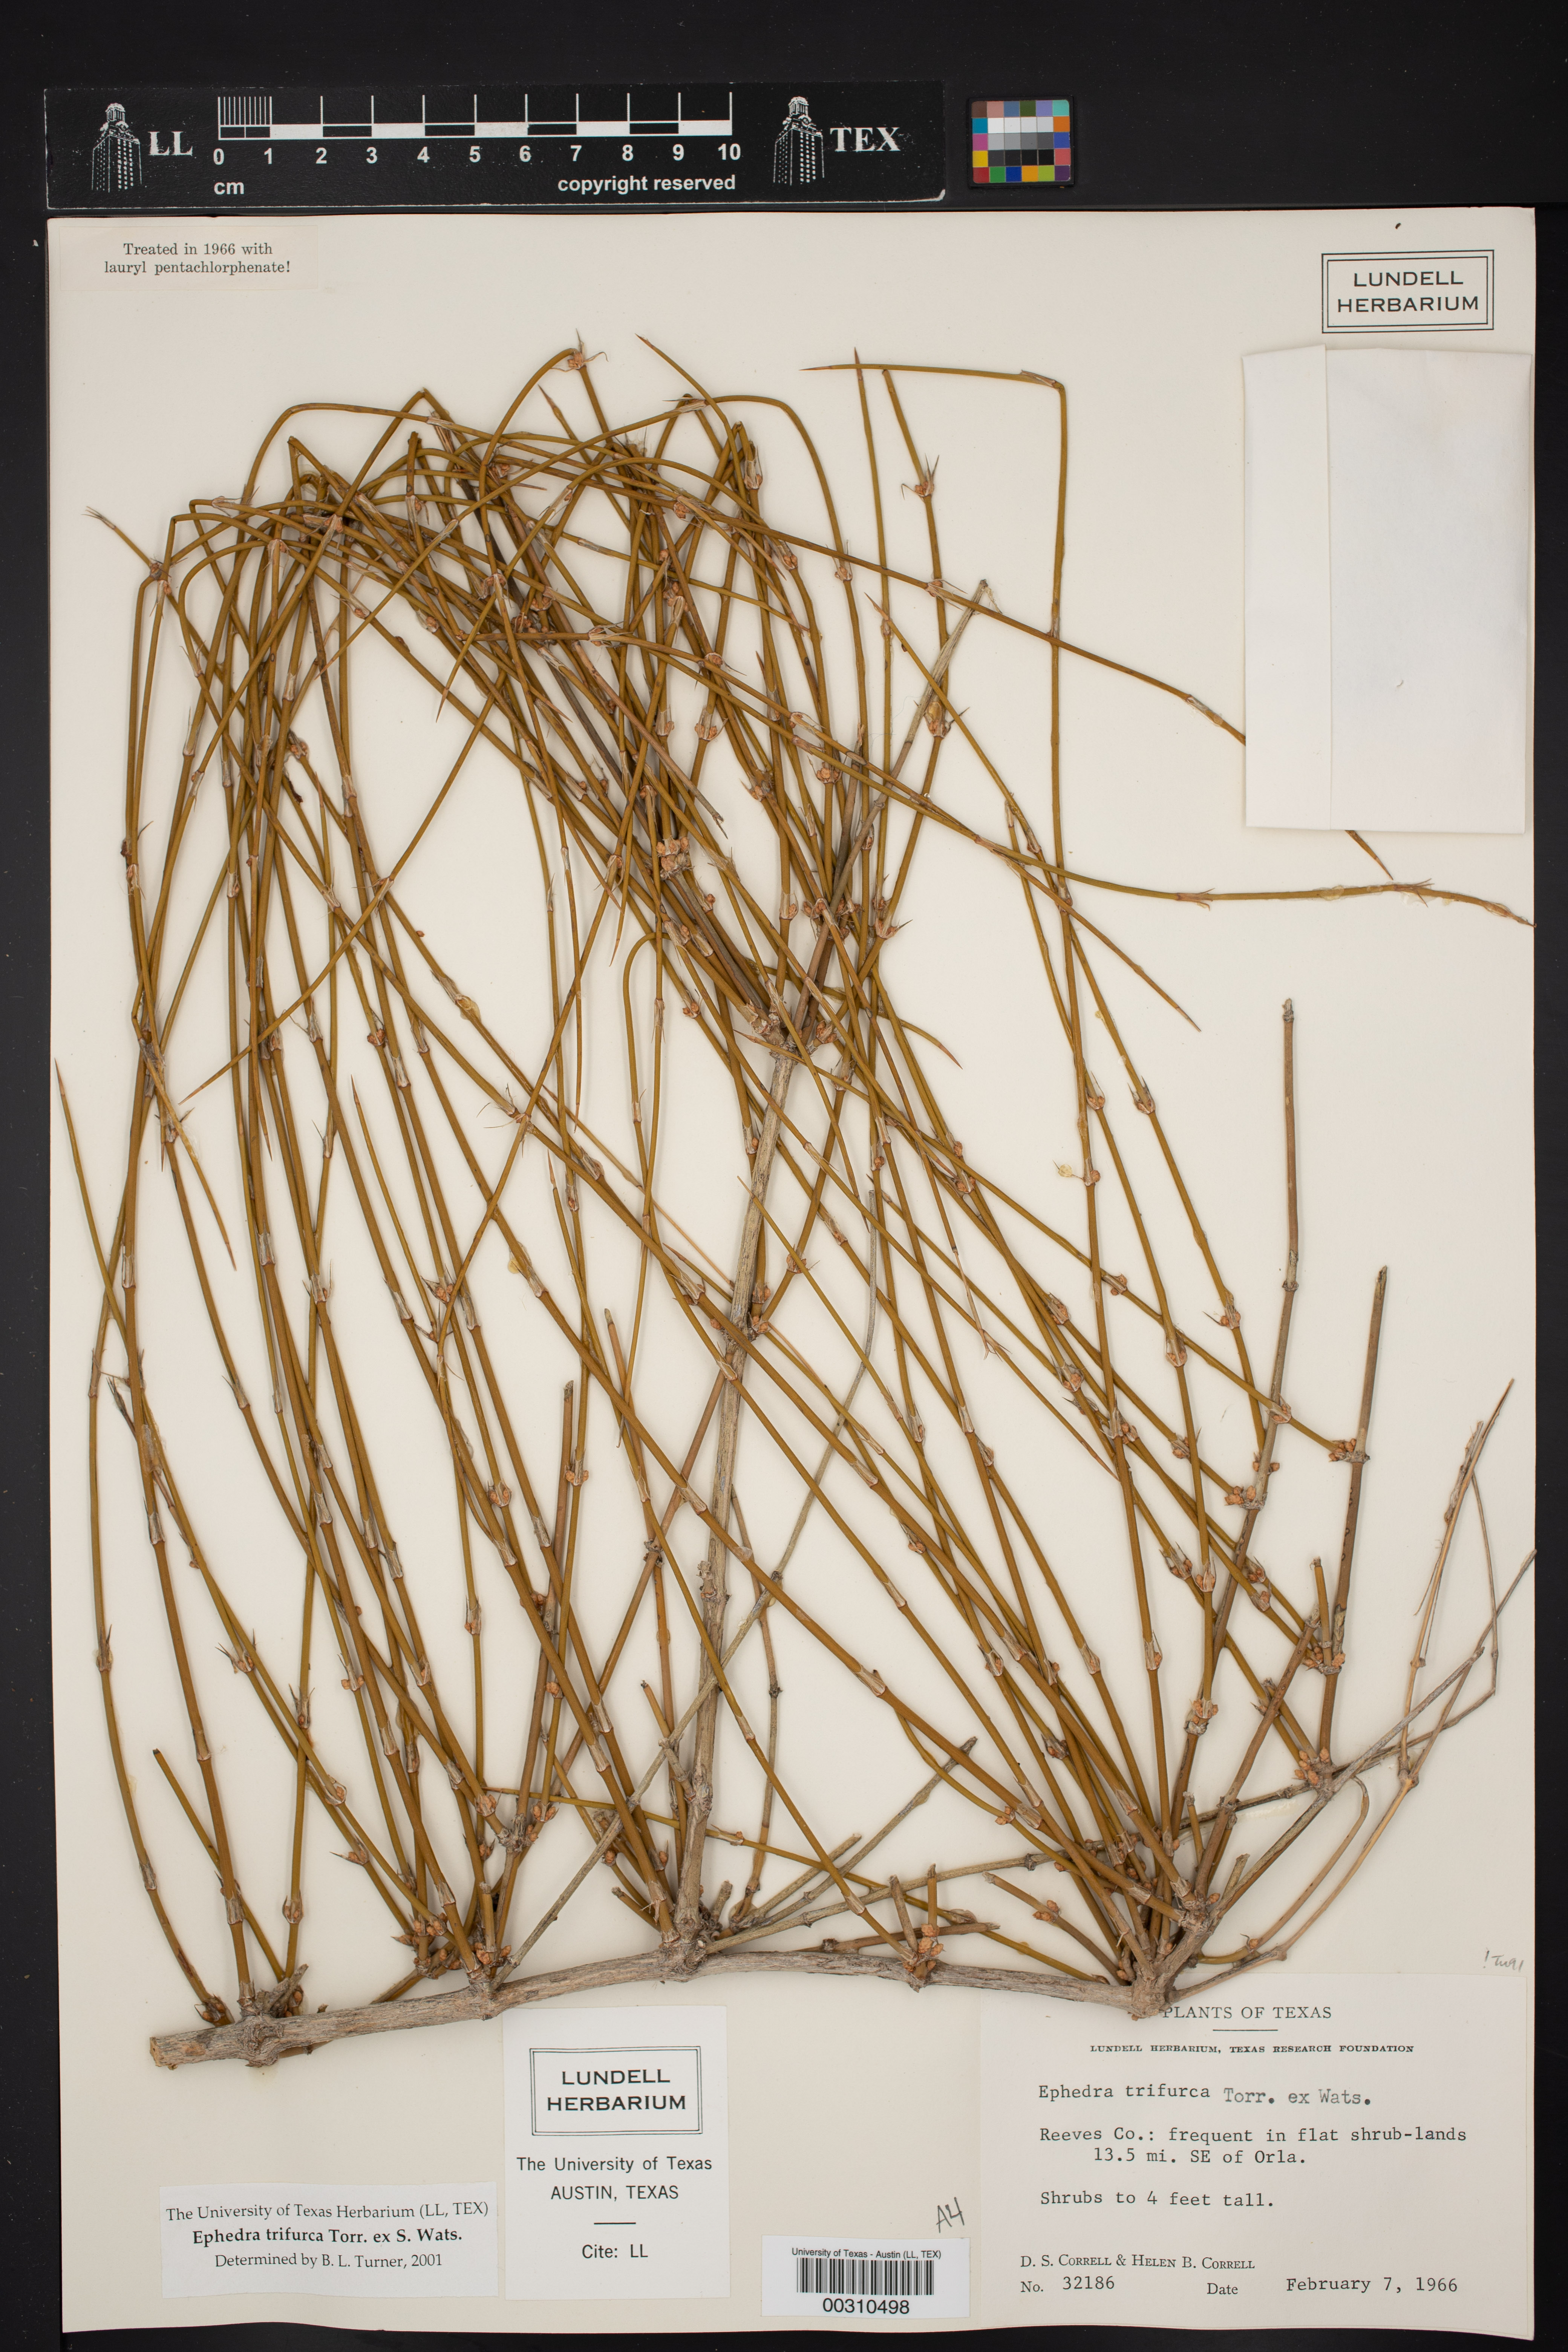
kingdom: Plantae
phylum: Tracheophyta
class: Gnetopsida
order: Ephedrales
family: Ephedraceae
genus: Ephedra
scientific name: Ephedra trifurca
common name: Mexican-tea
